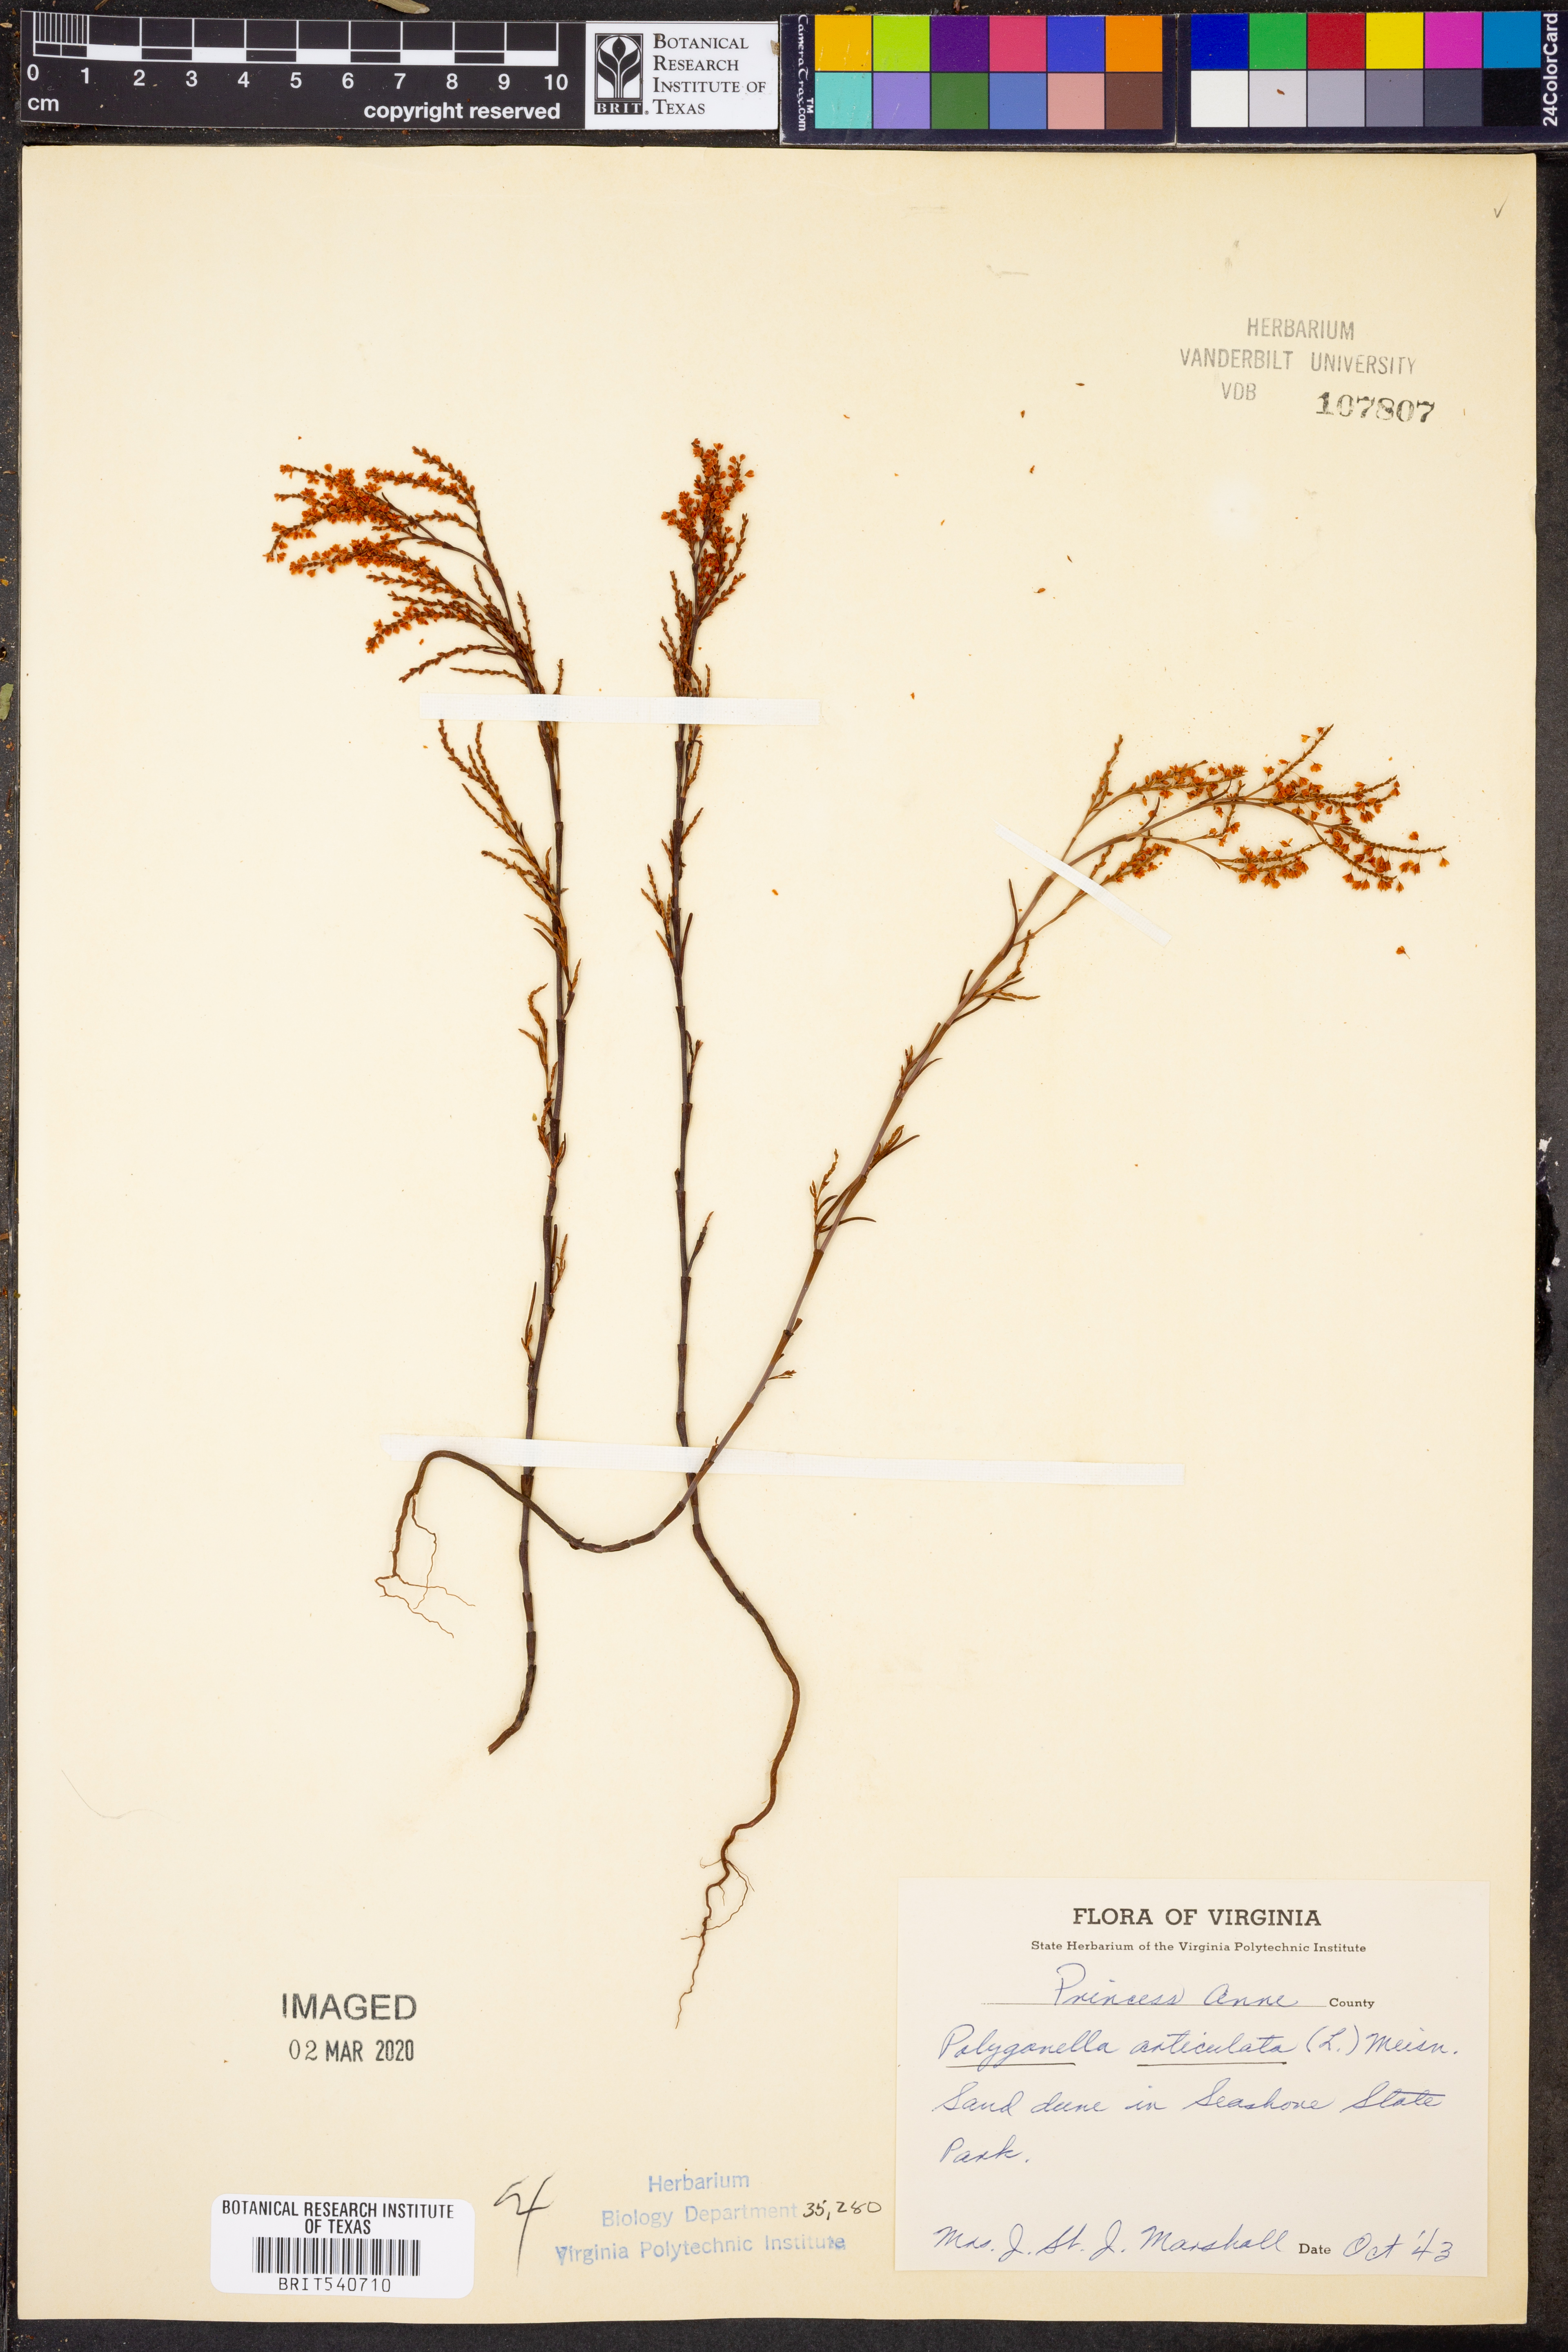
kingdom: Plantae
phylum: Tracheophyta
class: Magnoliopsida
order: Caryophyllales
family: Polygonaceae
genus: Polygonella
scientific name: Polygonella articulata
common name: Coastal jointweed
